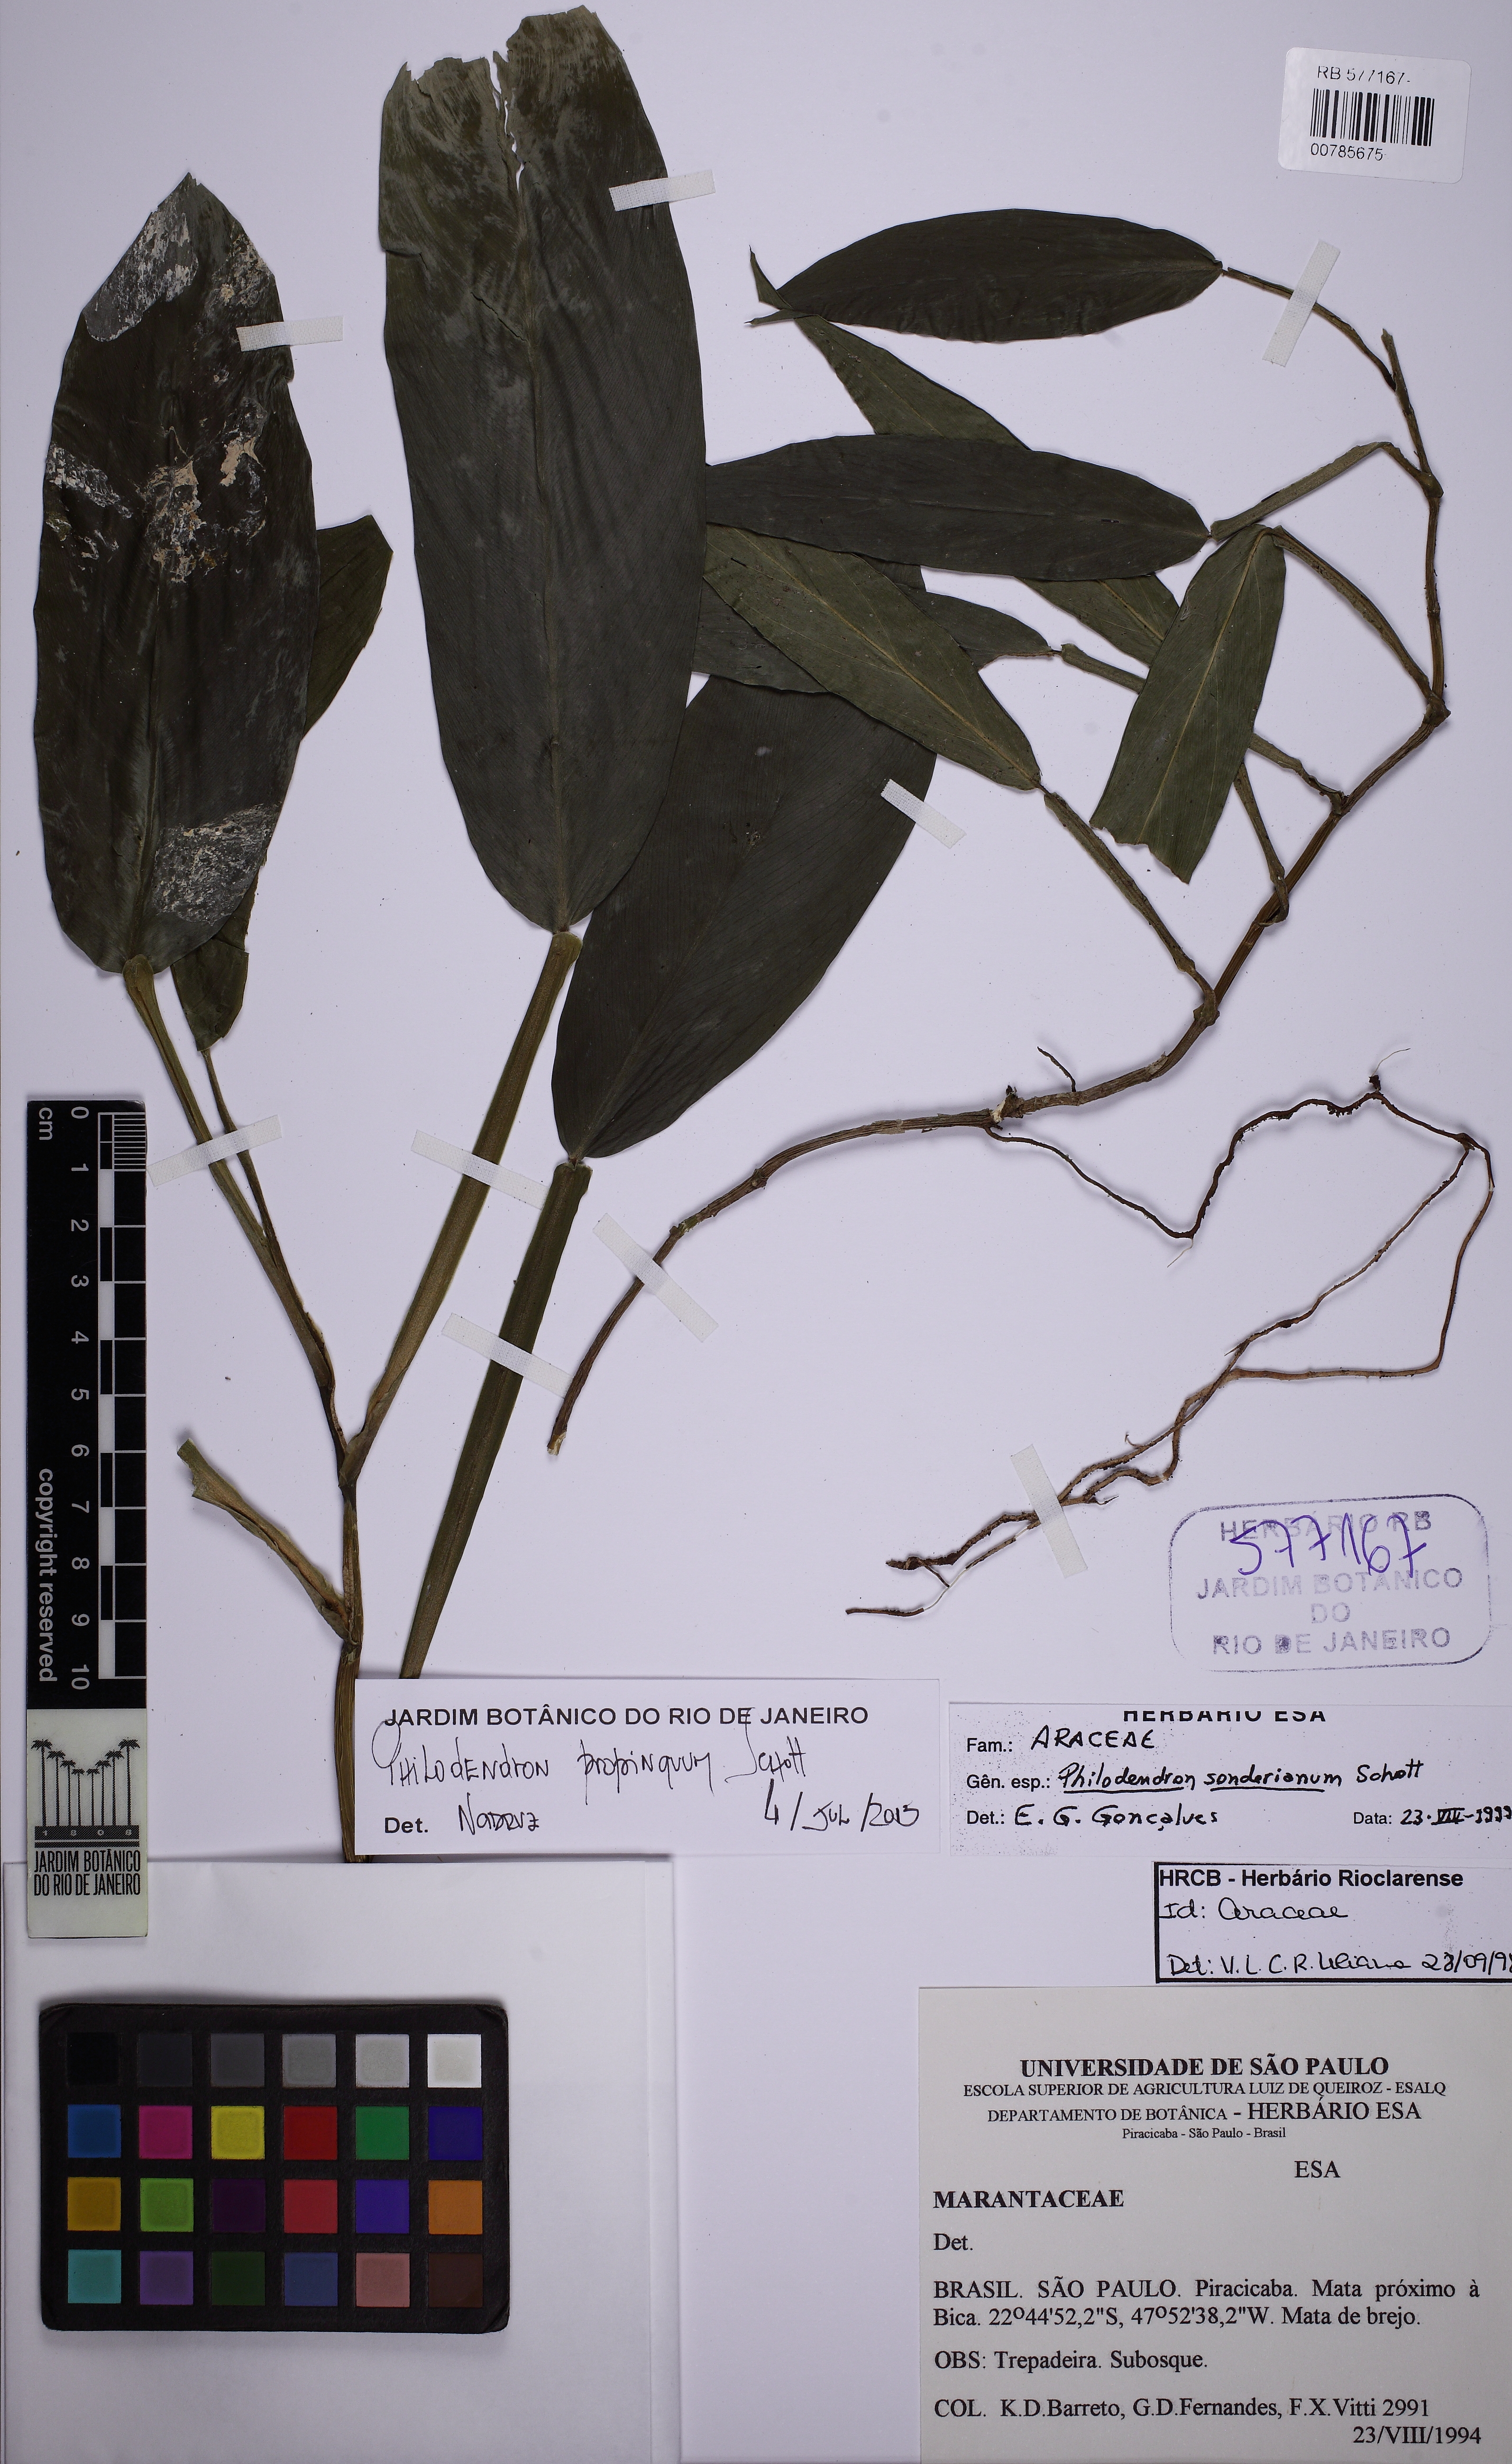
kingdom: Plantae
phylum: Tracheophyta
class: Liliopsida
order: Alismatales
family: Araceae
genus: Philodendron
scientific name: Philodendron propinquum
